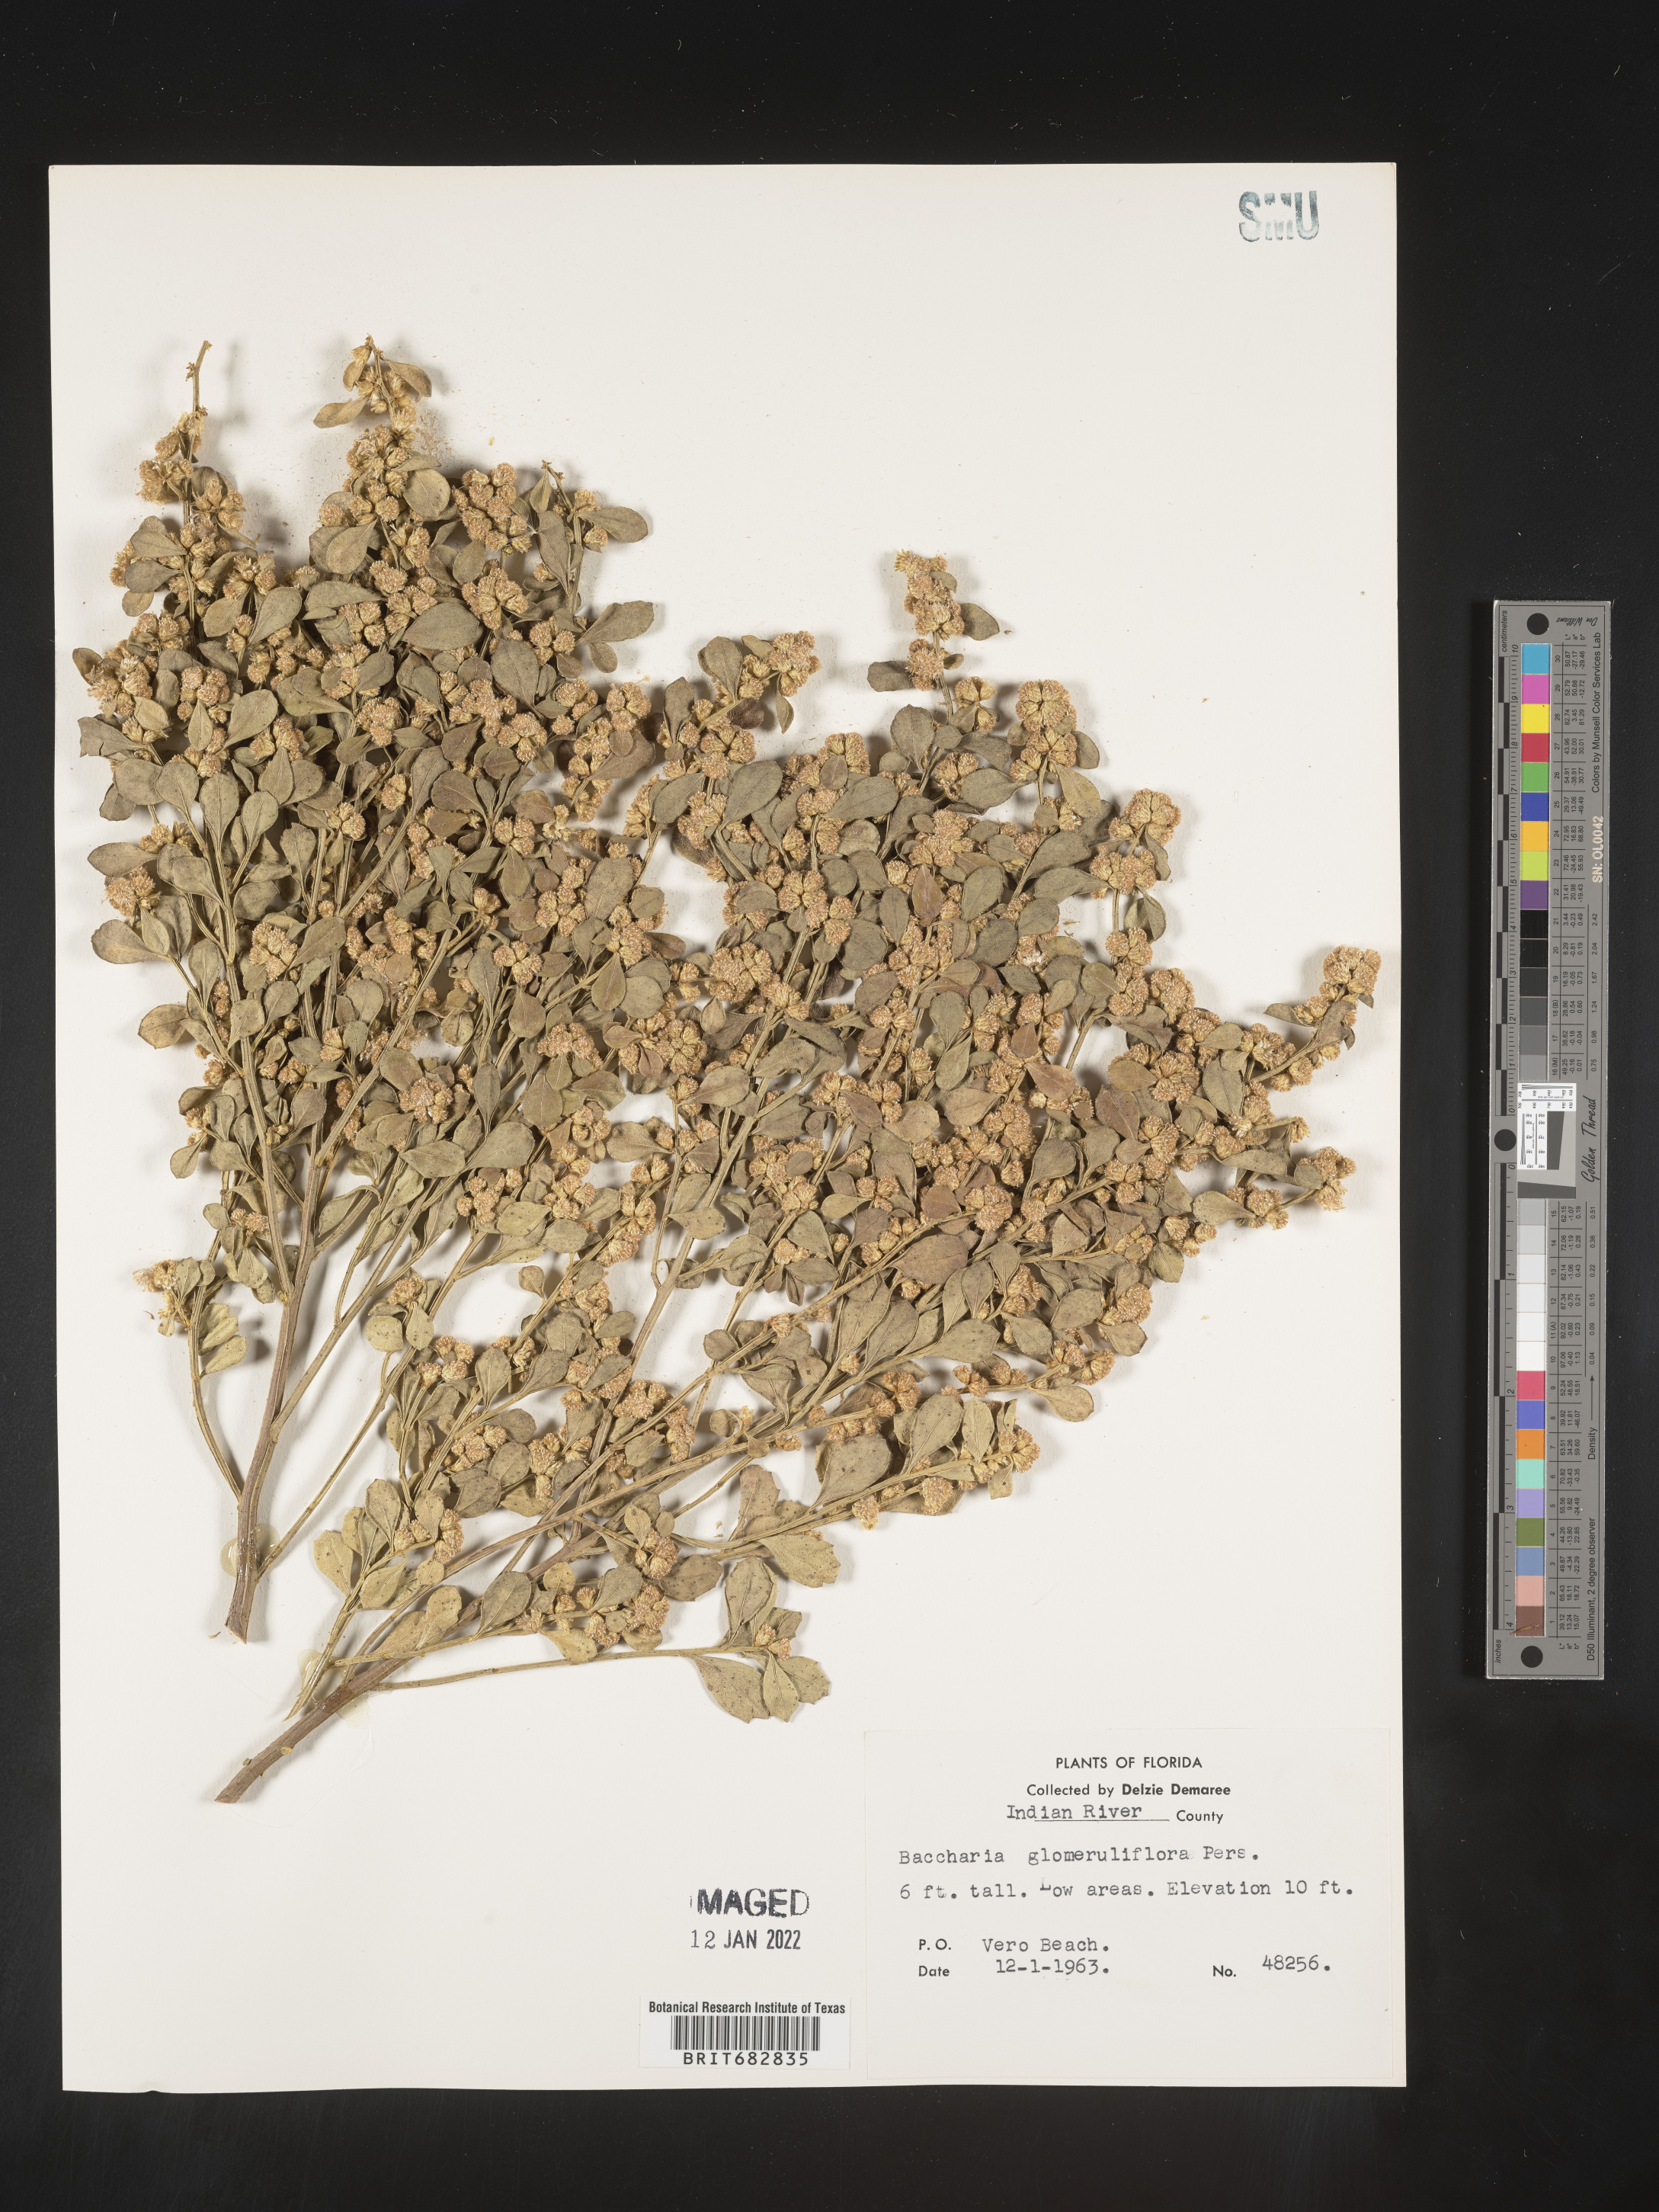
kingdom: Plantae
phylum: Tracheophyta
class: Magnoliopsida
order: Asterales
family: Asteraceae
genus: Baccharis
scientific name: Baccharis glomeruliflora
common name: Silverling groundsel bush
